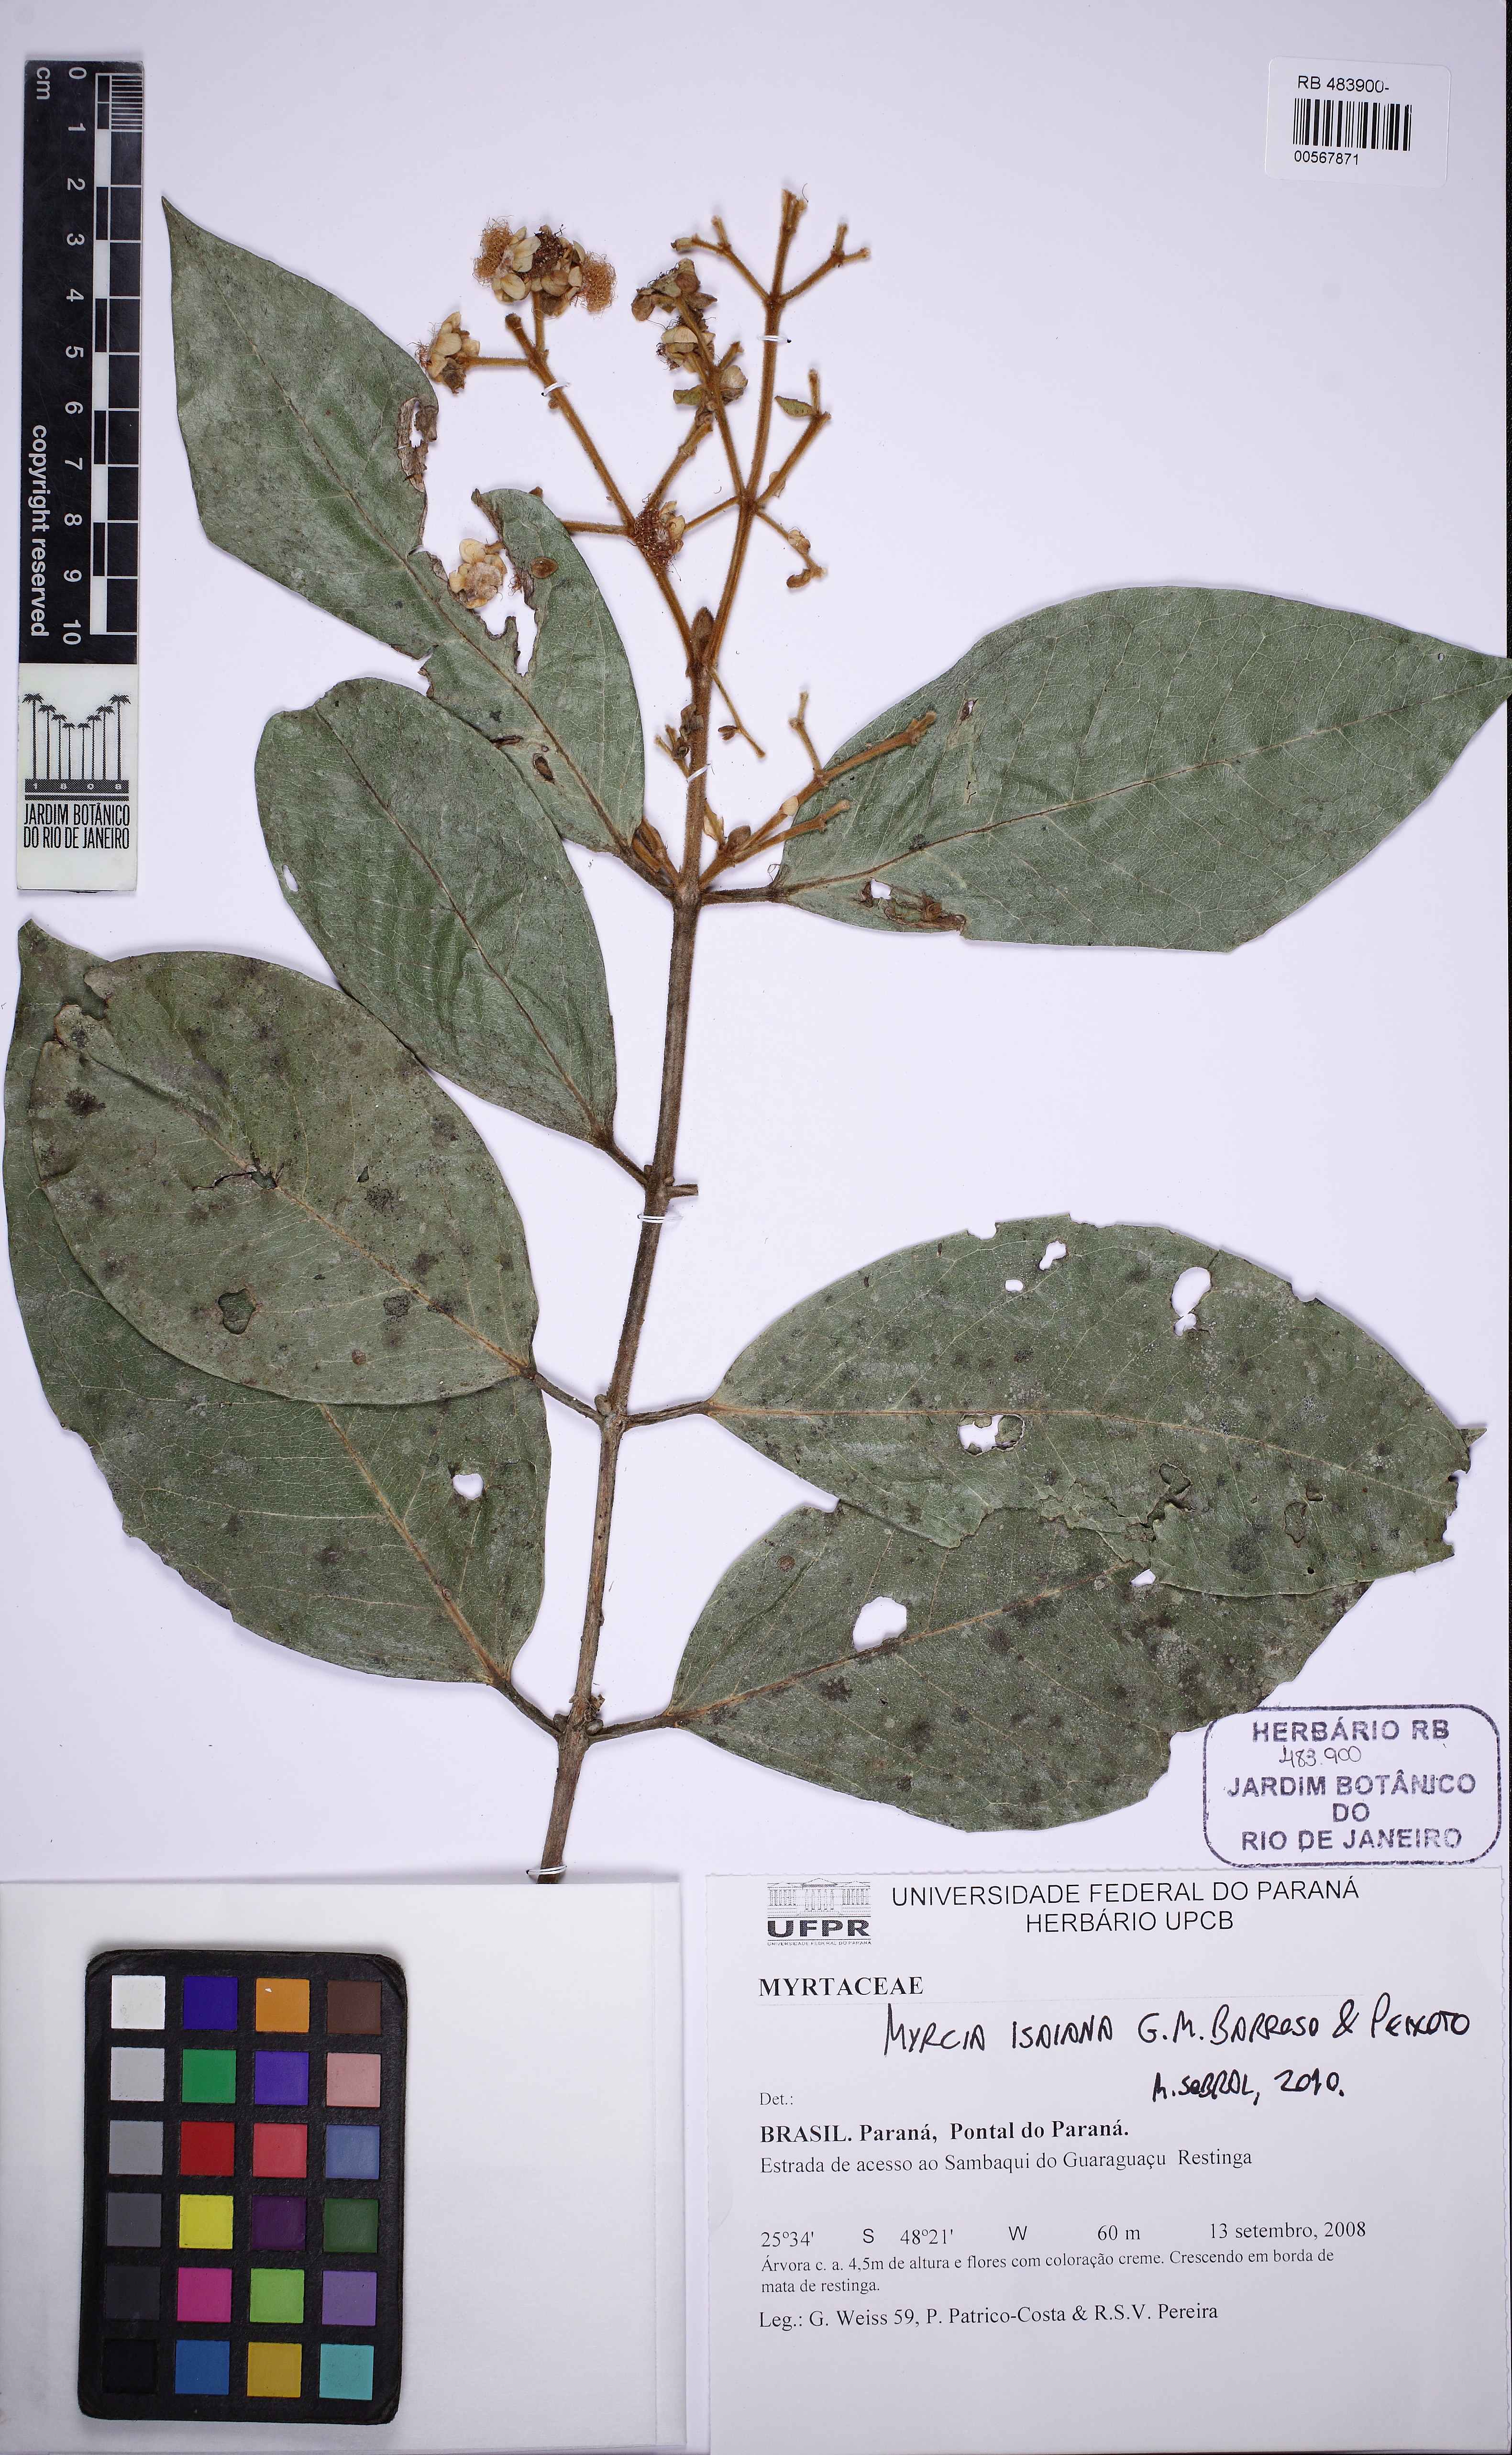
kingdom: Plantae
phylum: Tracheophyta
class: Magnoliopsida
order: Myrtales
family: Myrtaceae
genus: Myrcia
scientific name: Myrcia isaiana
